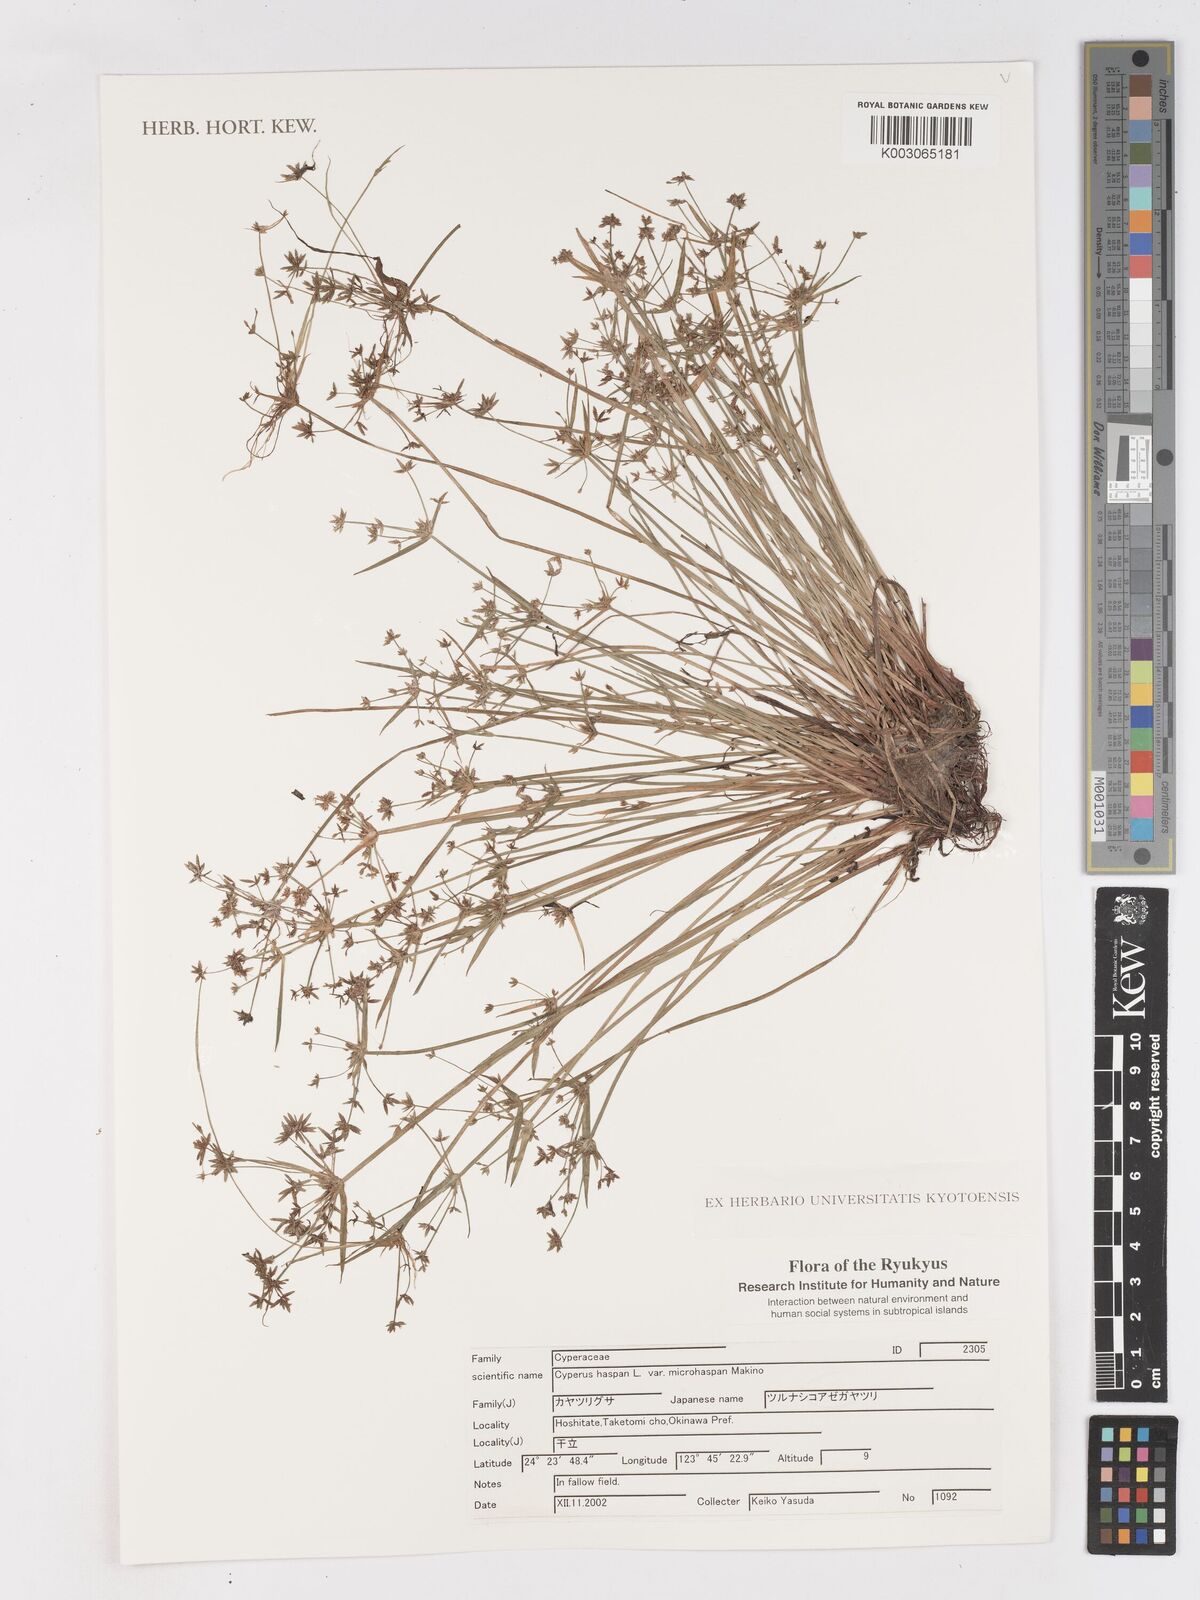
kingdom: Plantae
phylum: Tracheophyta
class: Liliopsida
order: Poales
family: Cyperaceae
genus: Cyperus
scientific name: Cyperus haspan
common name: Haspan flatsedge
